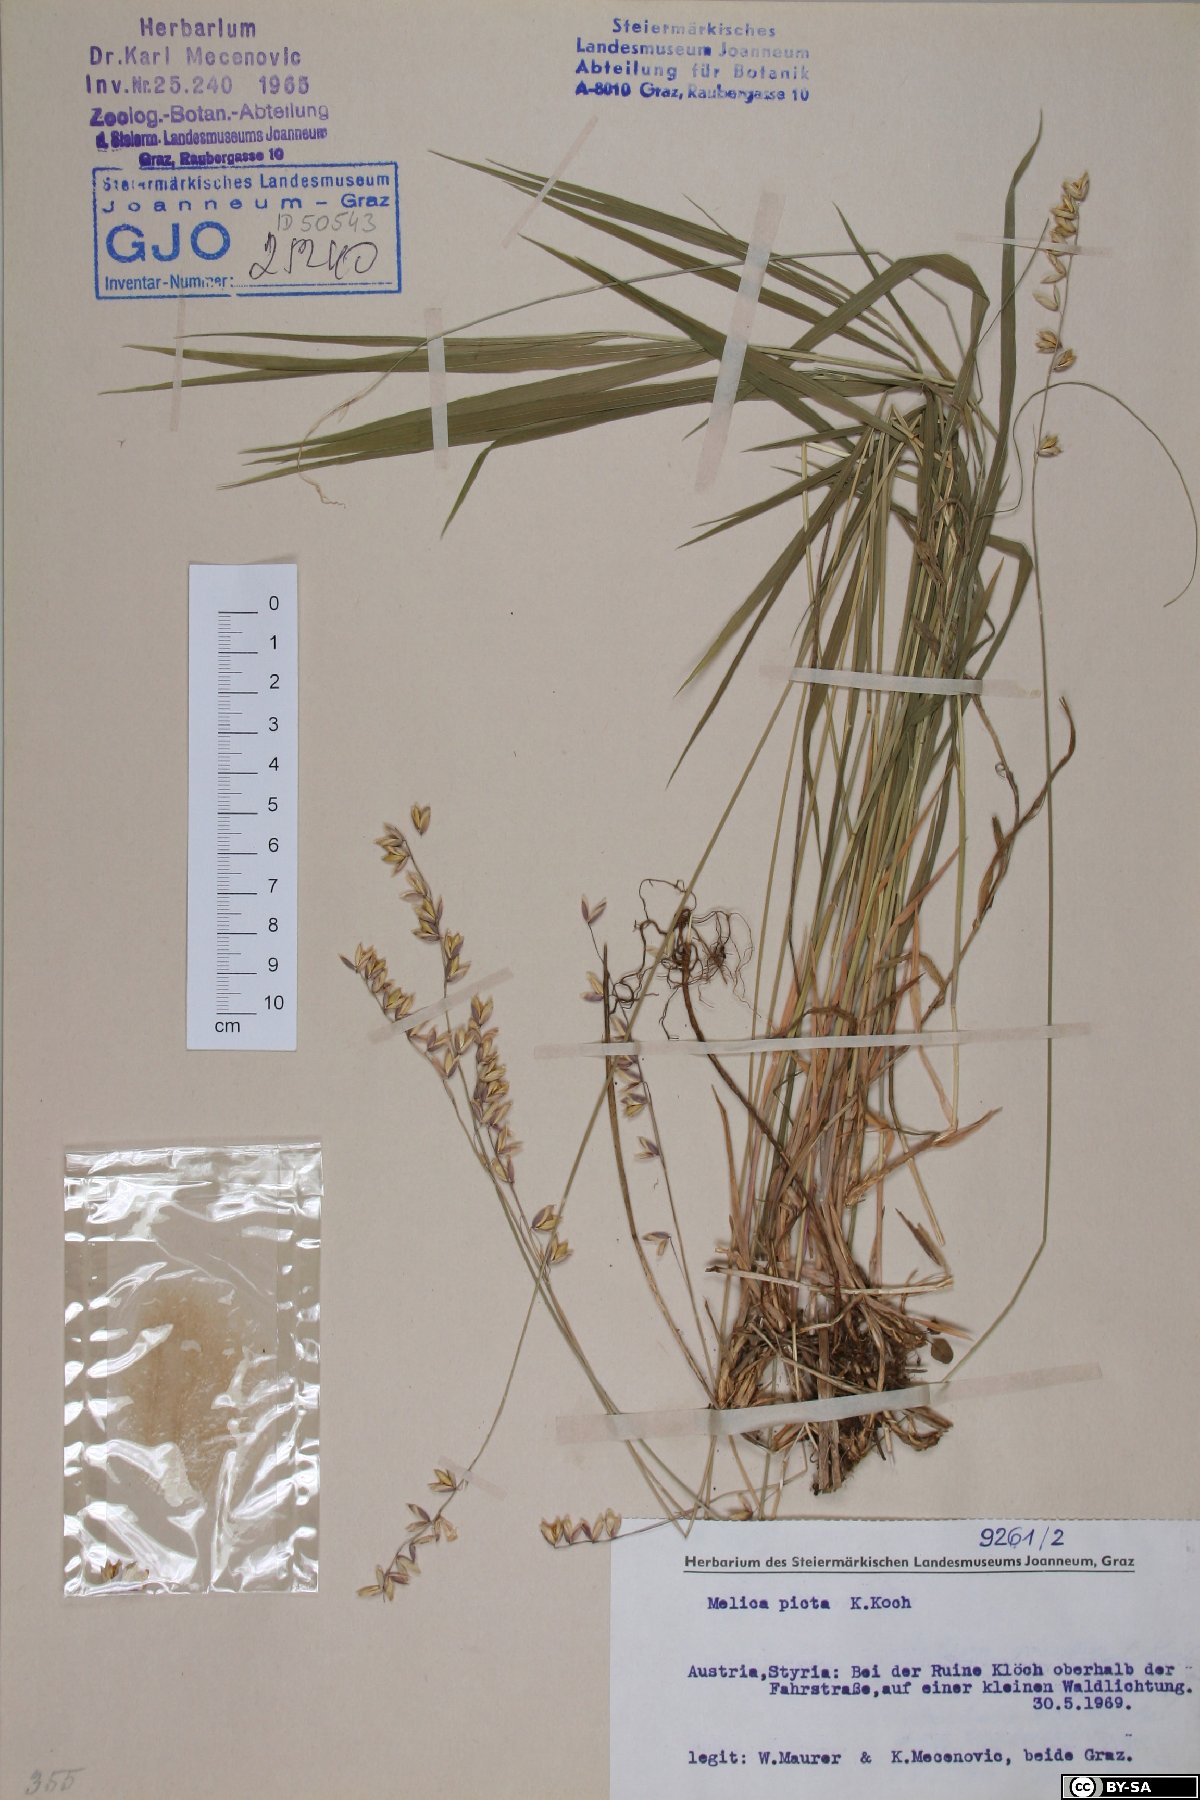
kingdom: Plantae
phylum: Tracheophyta
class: Liliopsida
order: Poales
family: Poaceae
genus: Melica
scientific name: Melica picta
